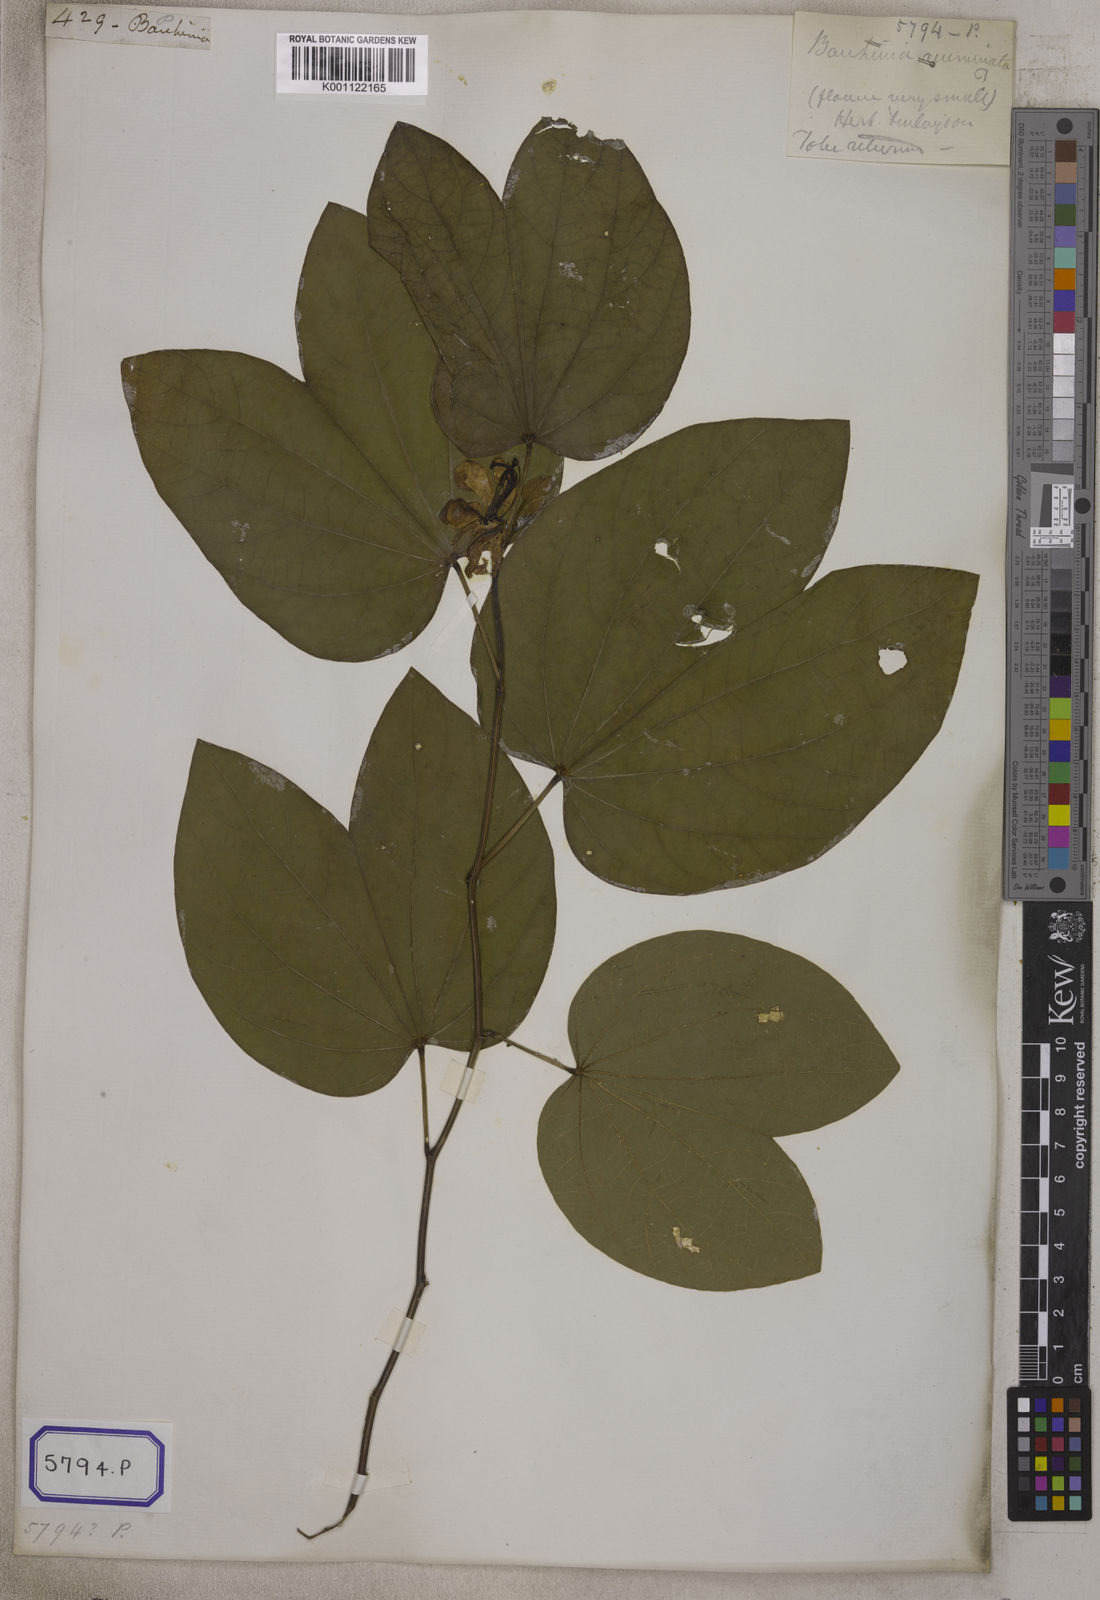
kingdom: Plantae
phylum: Tracheophyta
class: Magnoliopsida
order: Fabales
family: Fabaceae
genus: Bauhinia
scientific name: Bauhinia acuminata
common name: Dwarf white bauhinia
